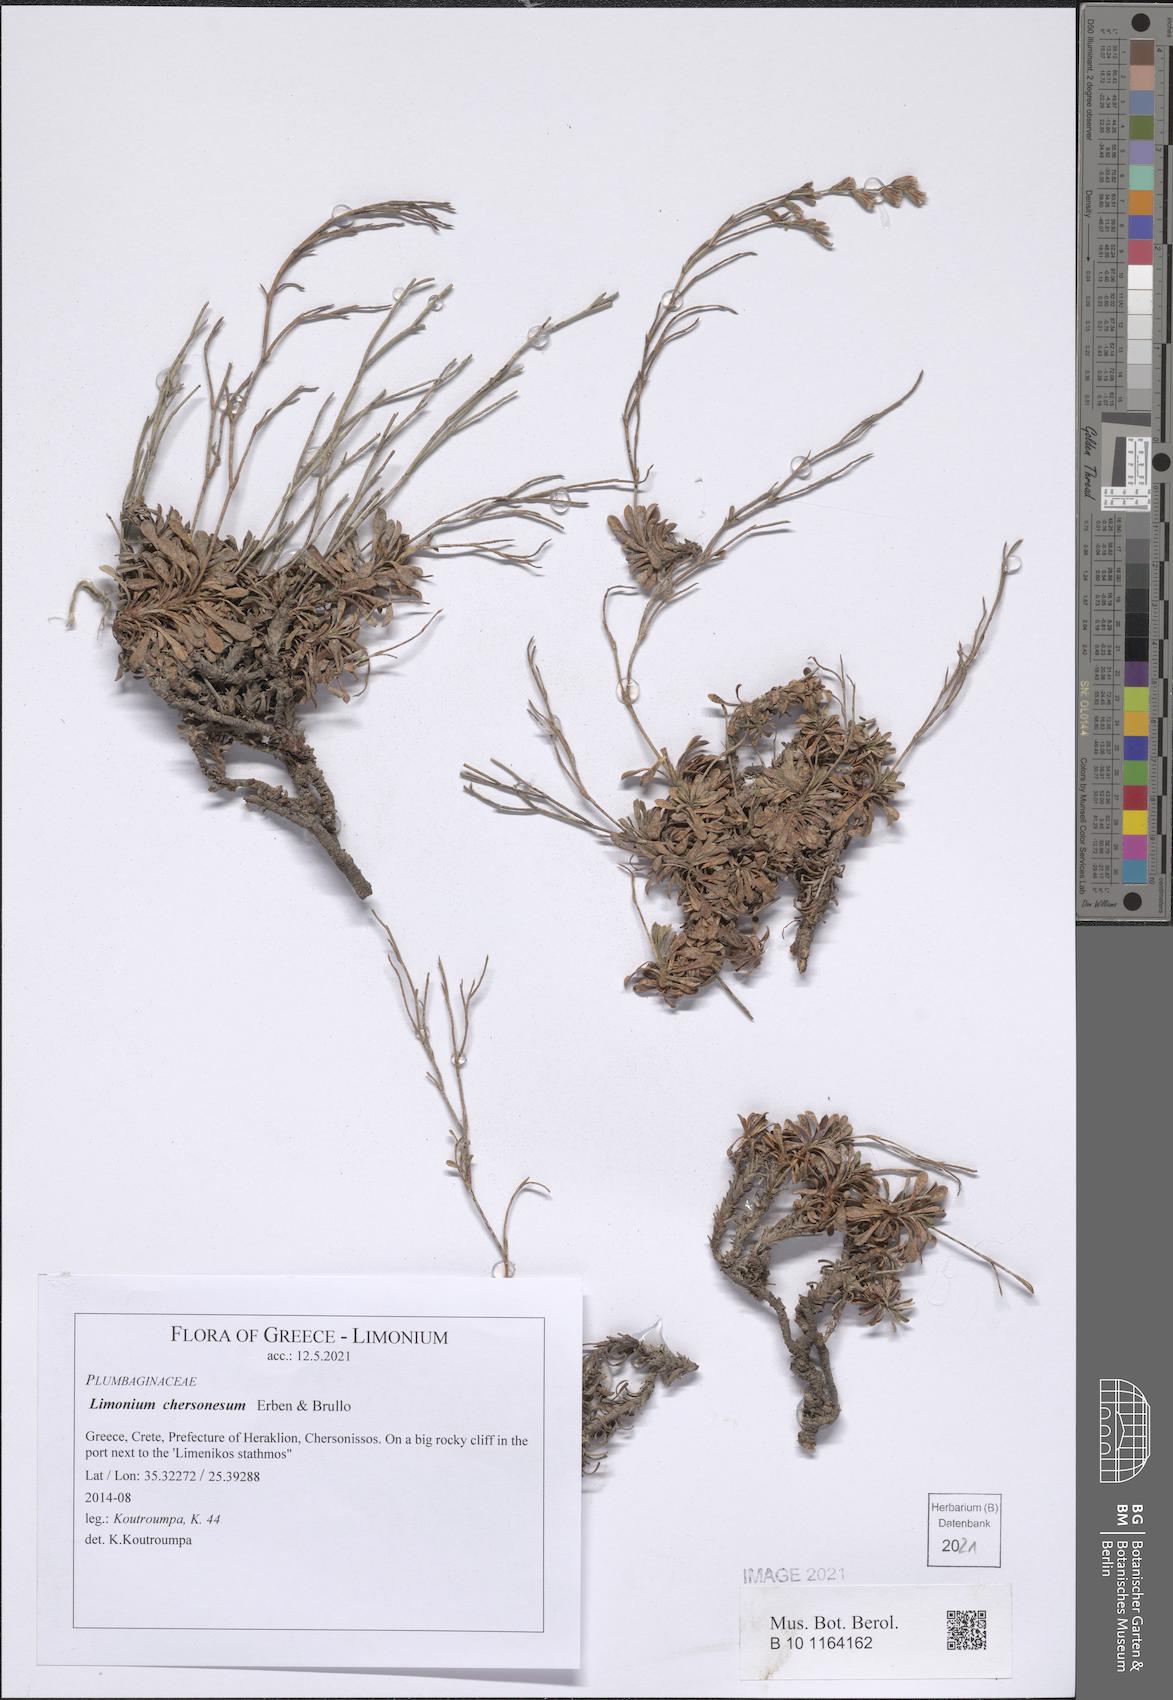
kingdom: Plantae
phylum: Tracheophyta
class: Magnoliopsida
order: Caryophyllales
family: Plumbaginaceae
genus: Limonium
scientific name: Limonium chersonesum
